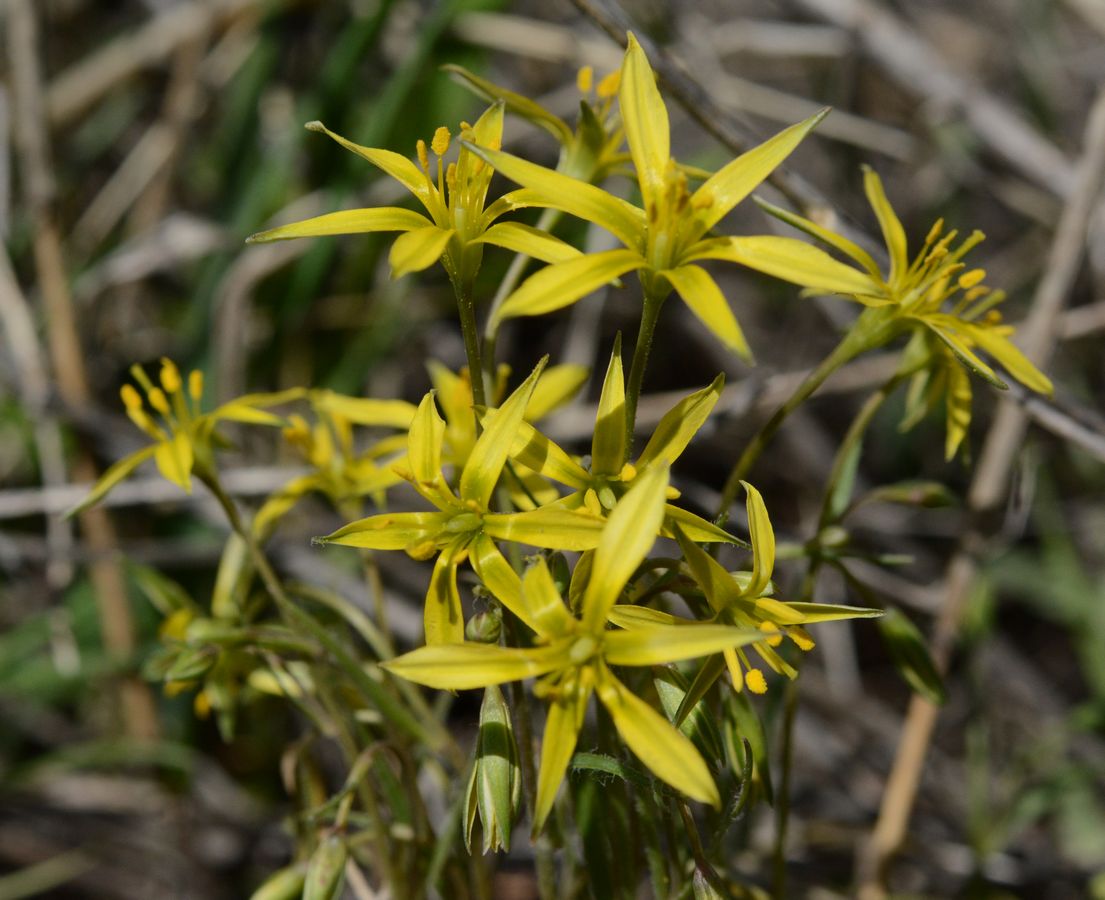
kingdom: Plantae
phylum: Tracheophyta
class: Liliopsida
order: Liliales
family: Liliaceae
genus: Gagea
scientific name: Gagea bulbifera
